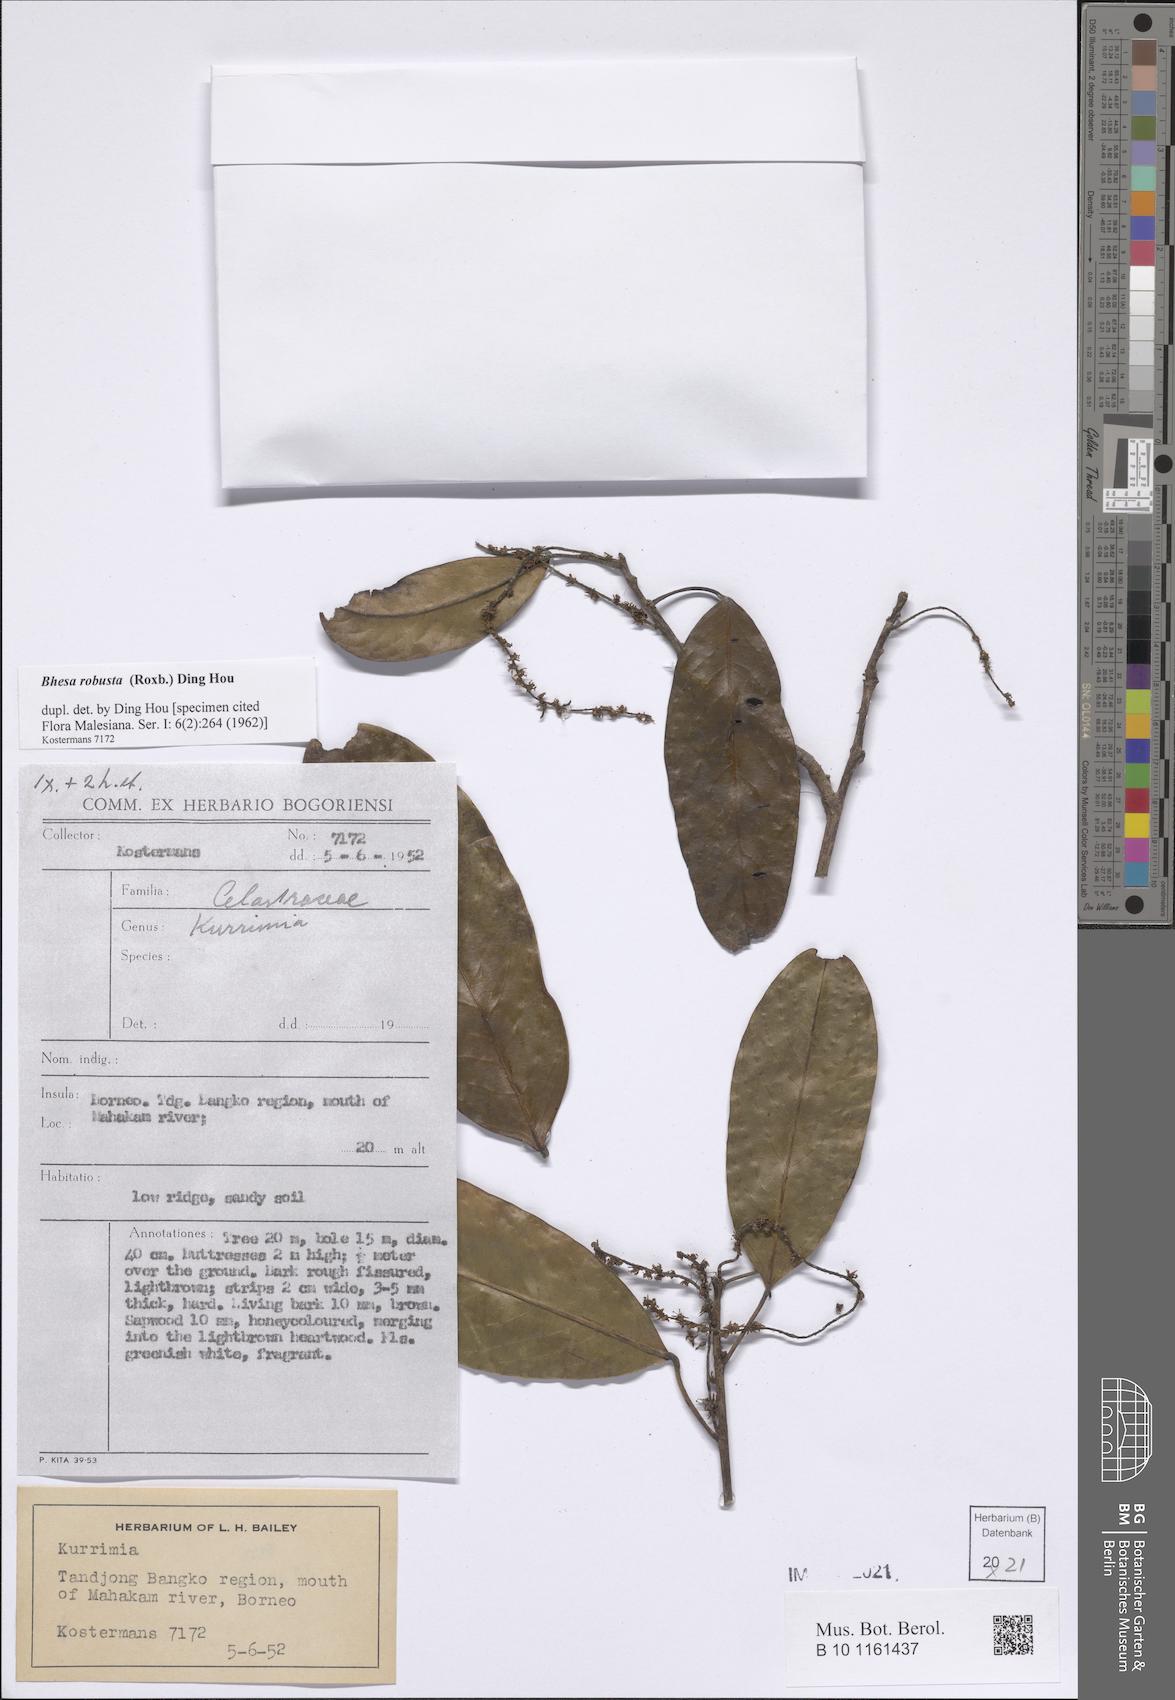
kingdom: Plantae
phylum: Tracheophyta
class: Magnoliopsida
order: Malpighiales
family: Centroplacaceae
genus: Bhesa
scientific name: Bhesa robusta
